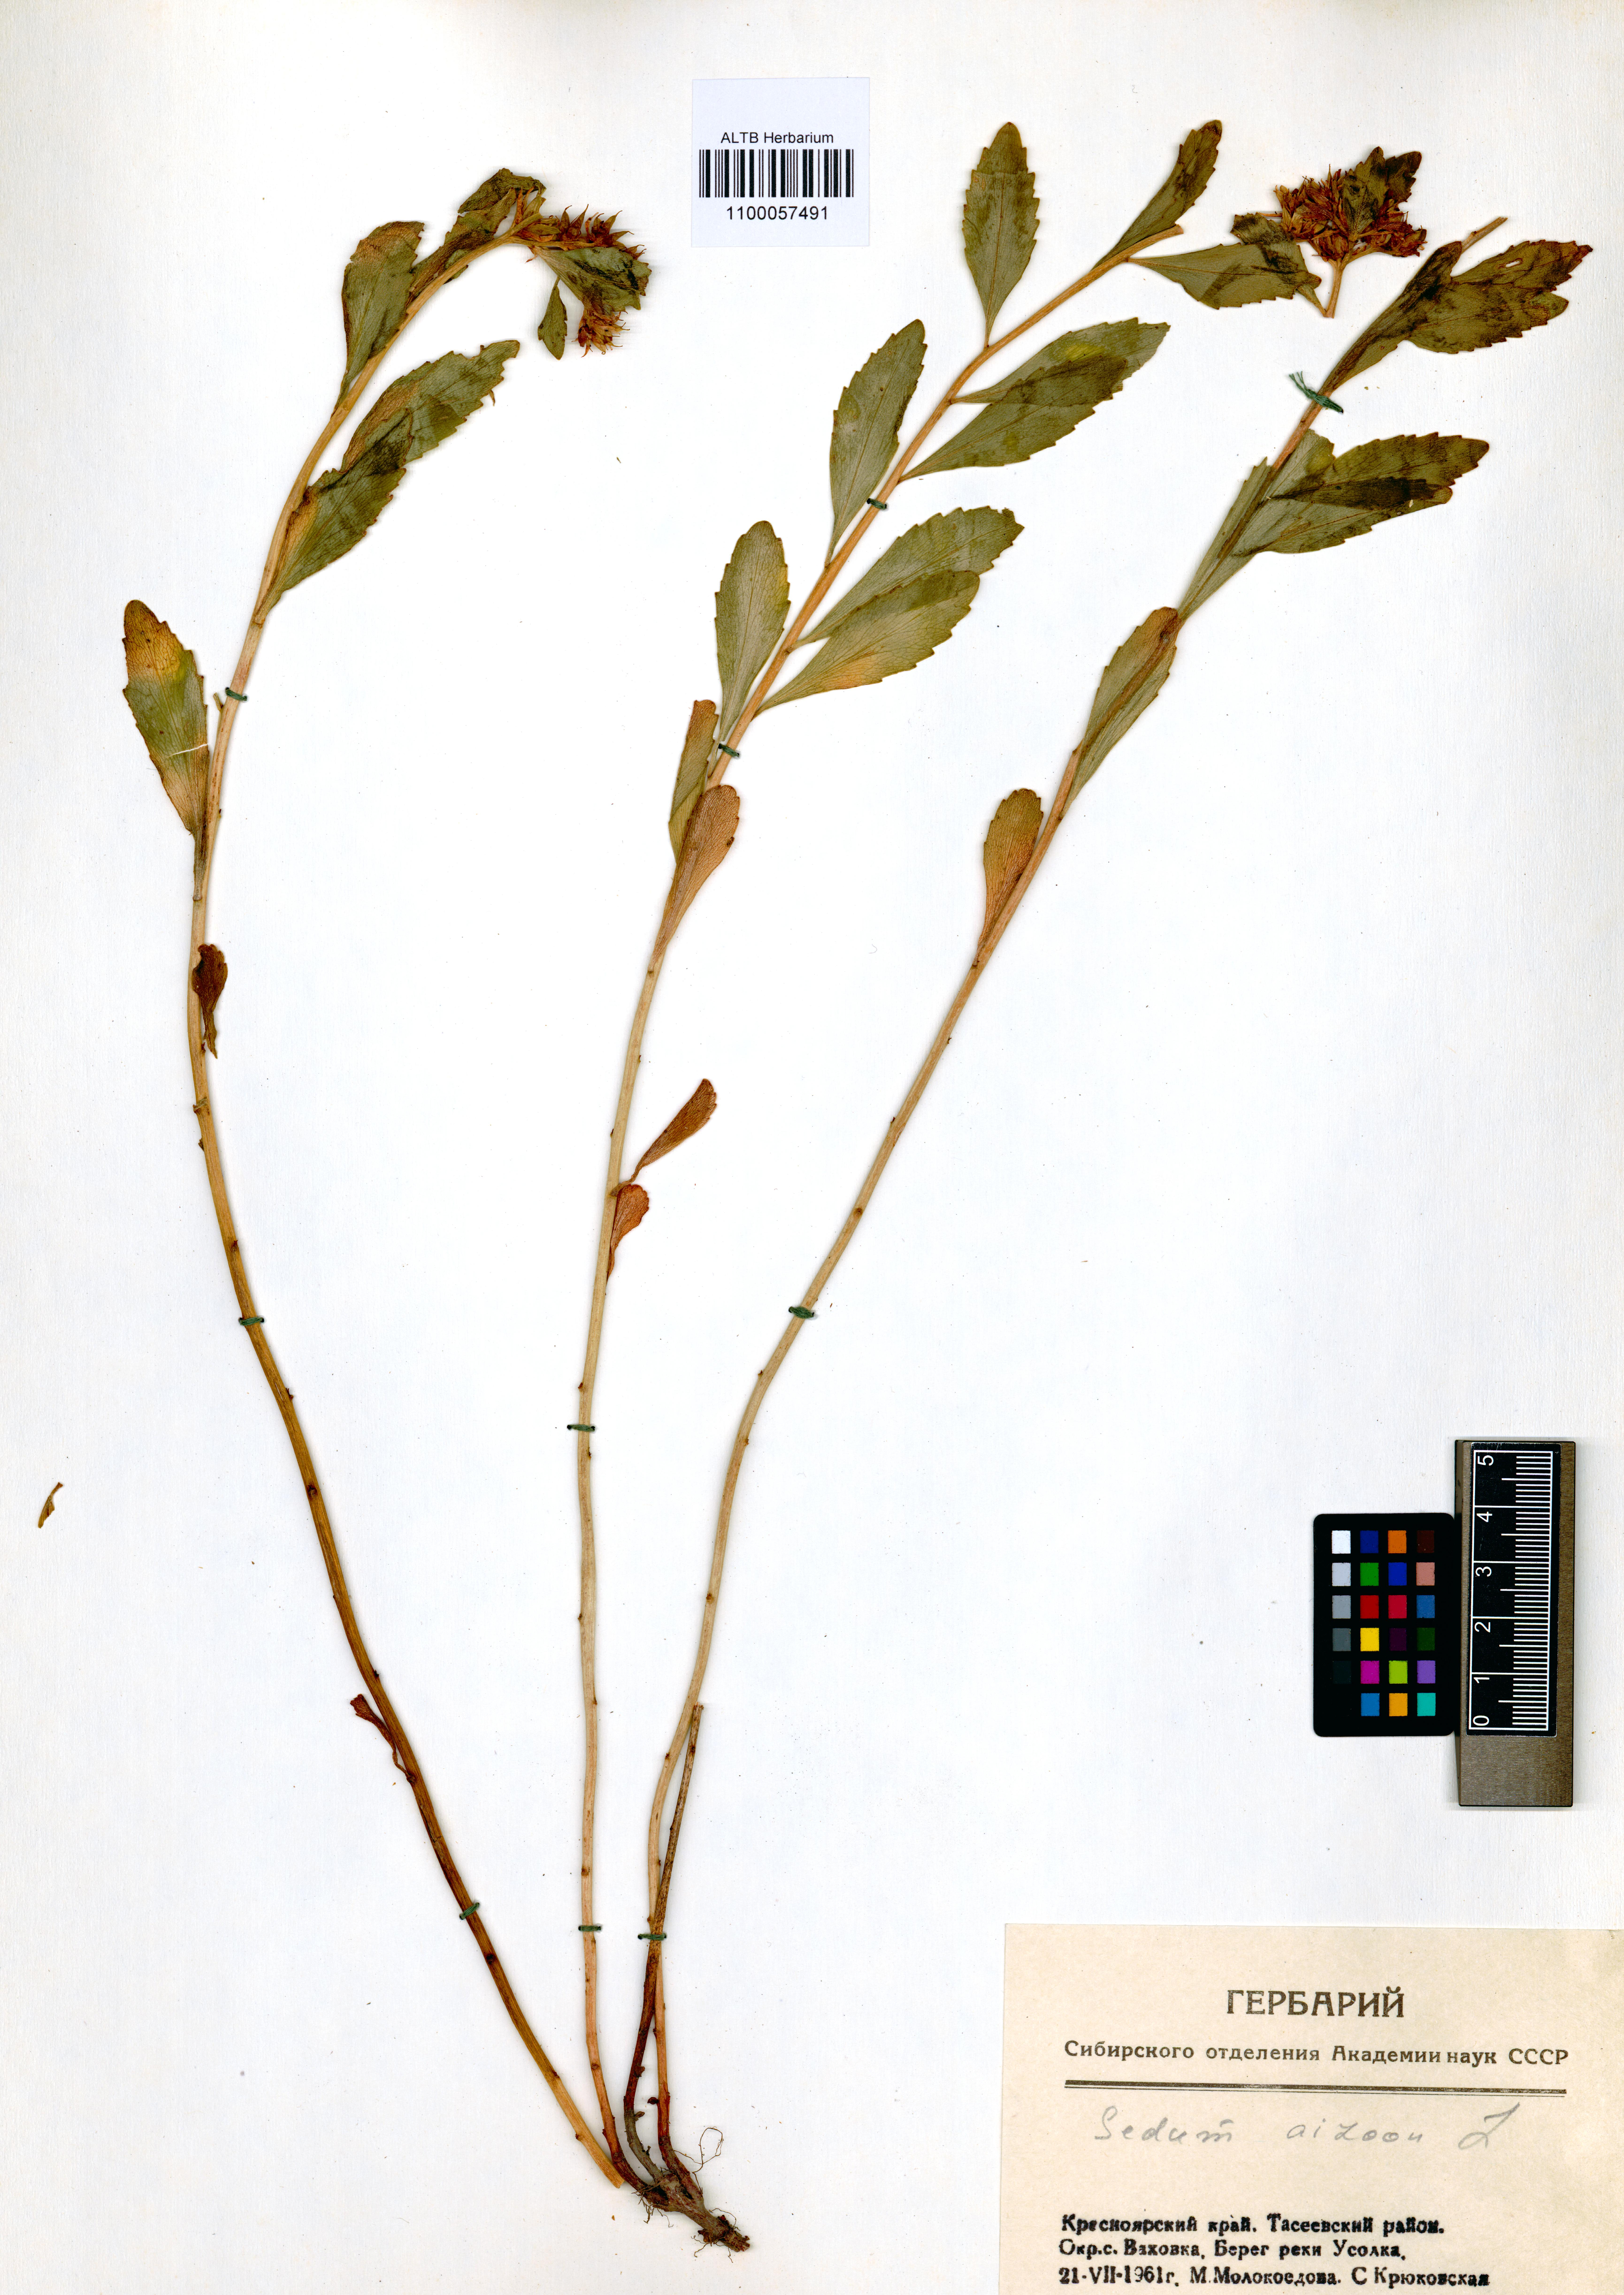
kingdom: Plantae
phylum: Tracheophyta
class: Magnoliopsida
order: Saxifragales
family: Crassulaceae
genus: Phedimus
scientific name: Phedimus aizoon
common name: Orpin aizoon
